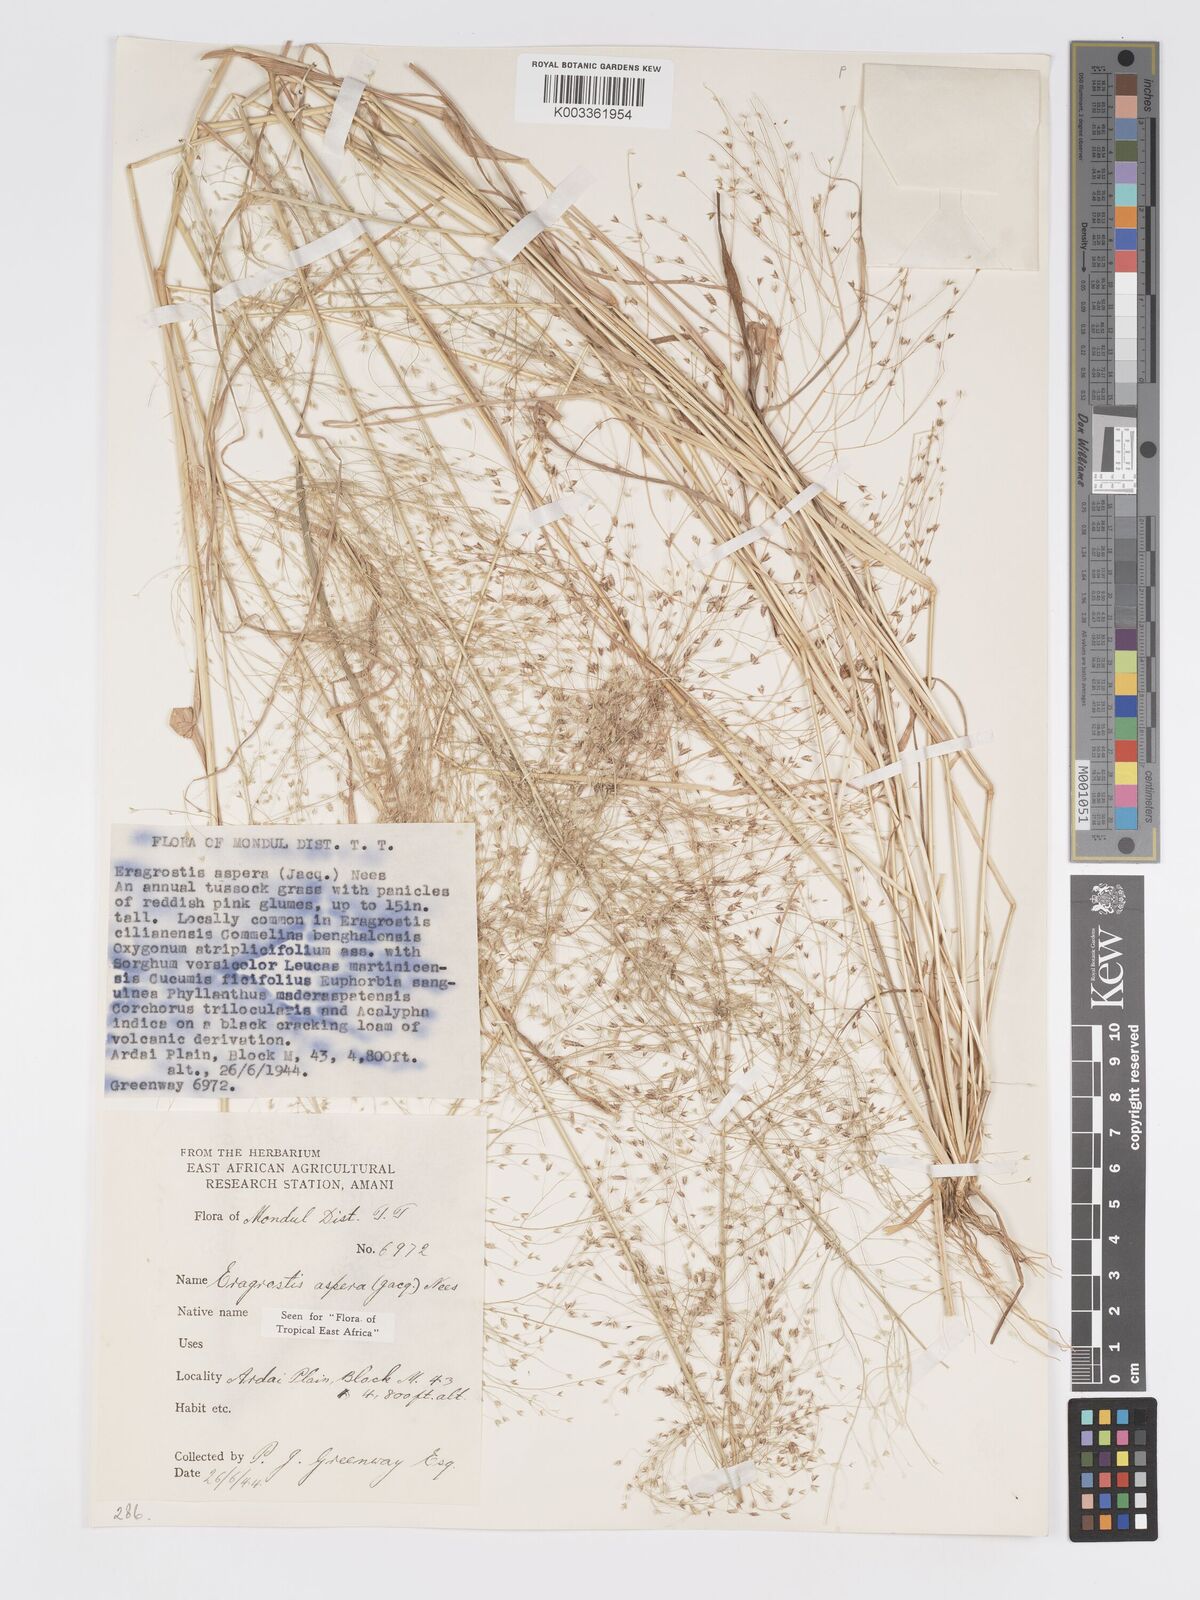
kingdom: Plantae
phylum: Tracheophyta
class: Liliopsida
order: Poales
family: Poaceae
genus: Eragrostis
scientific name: Eragrostis aspera
